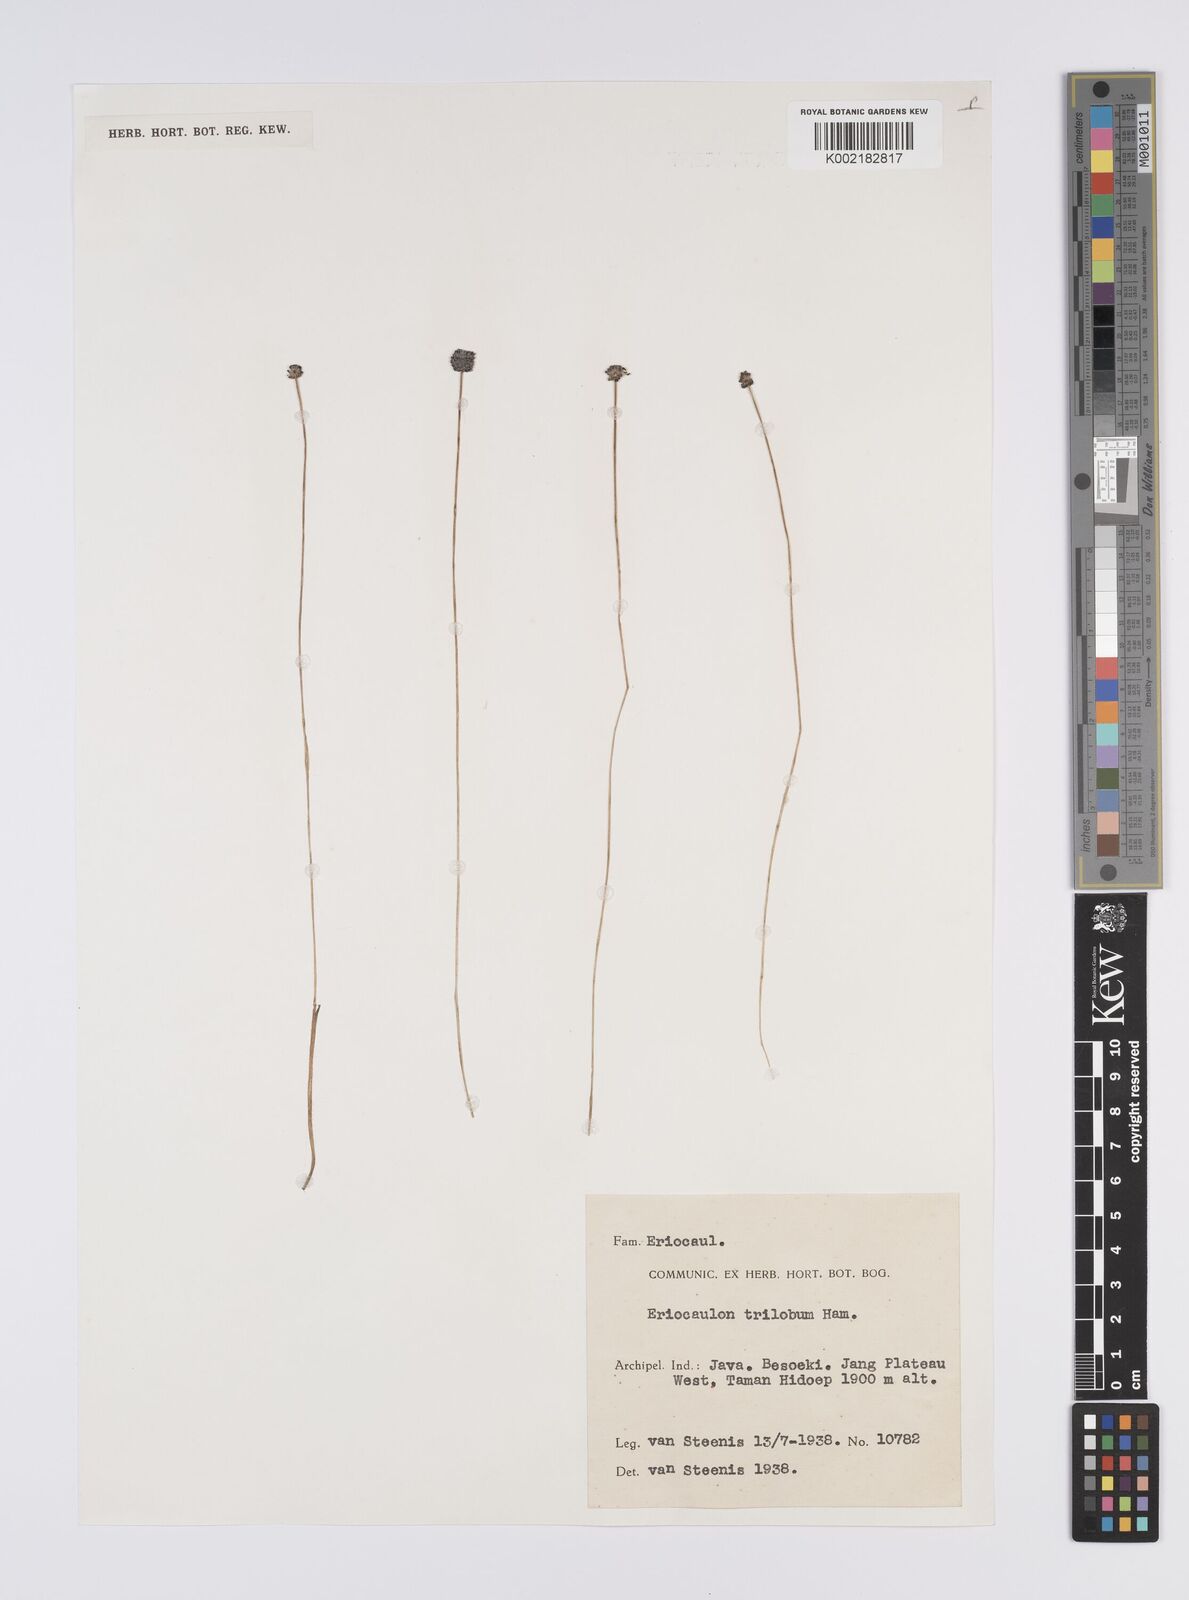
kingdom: Plantae
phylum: Tracheophyta
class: Liliopsida
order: Poales
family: Eriocaulaceae
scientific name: Eriocaulaceae
